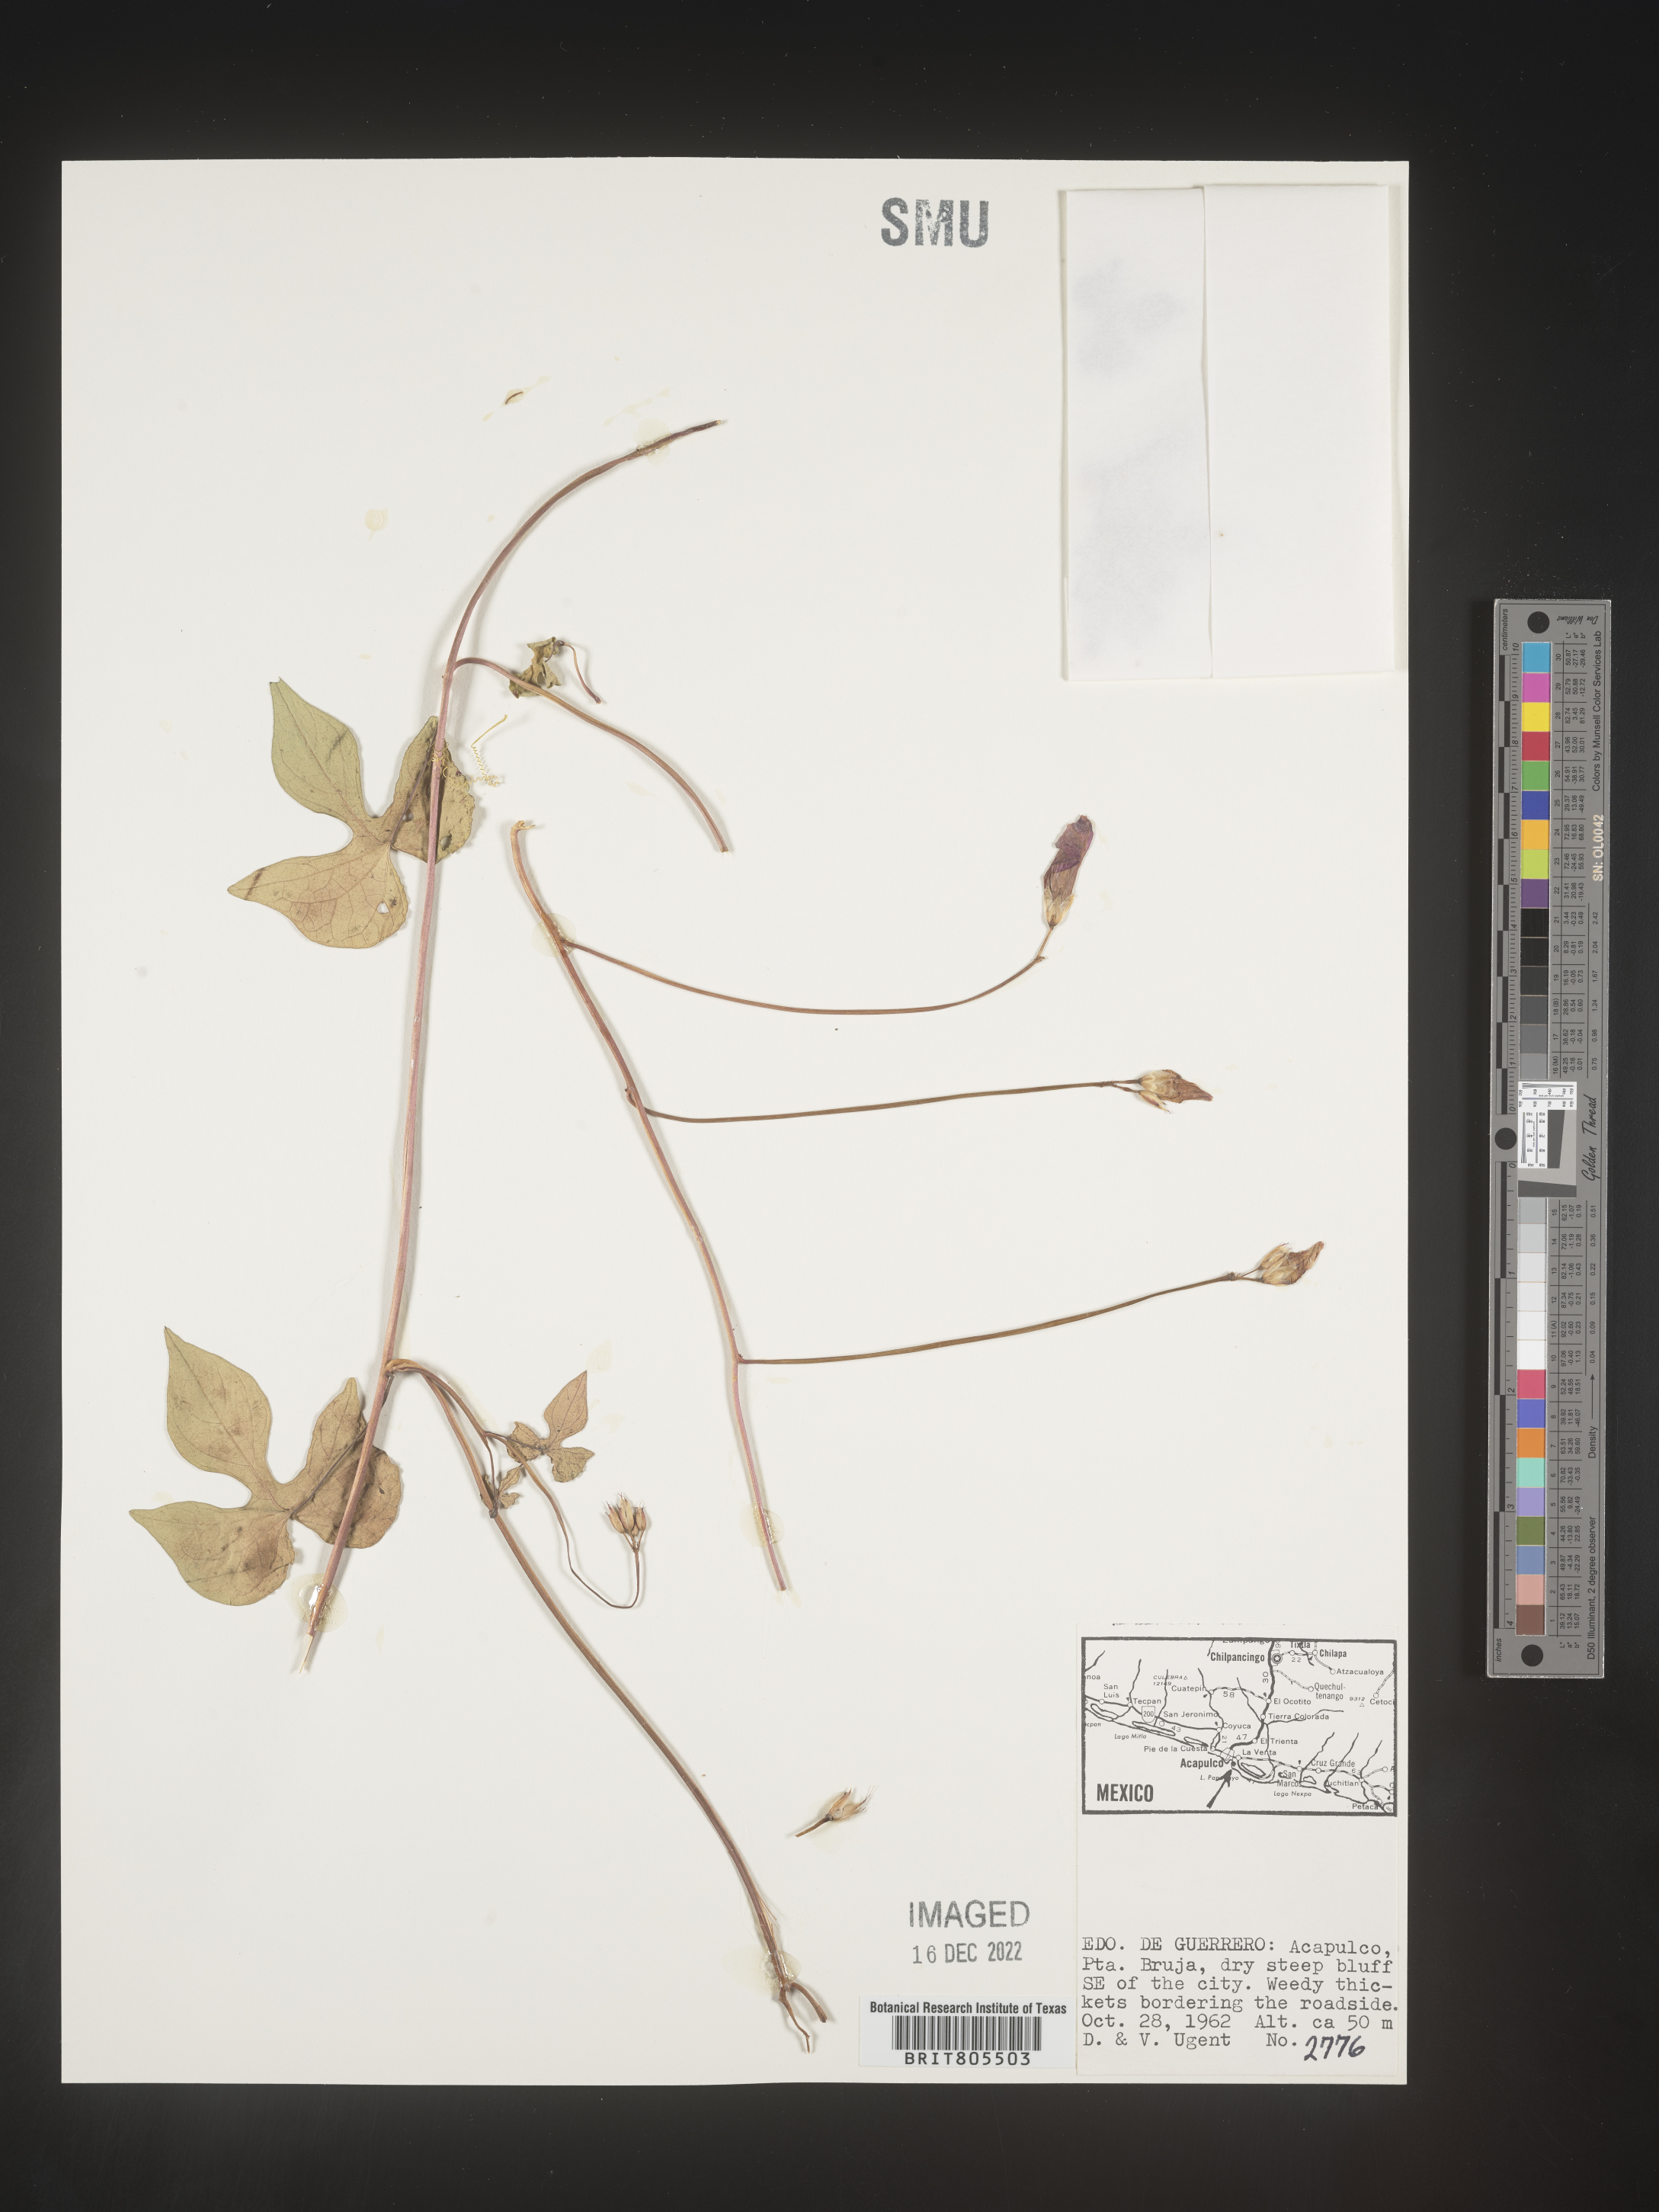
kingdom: Plantae
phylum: Tracheophyta
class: Magnoliopsida
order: Solanales
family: Convolvulaceae
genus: Ipomoea
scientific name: Ipomoea
